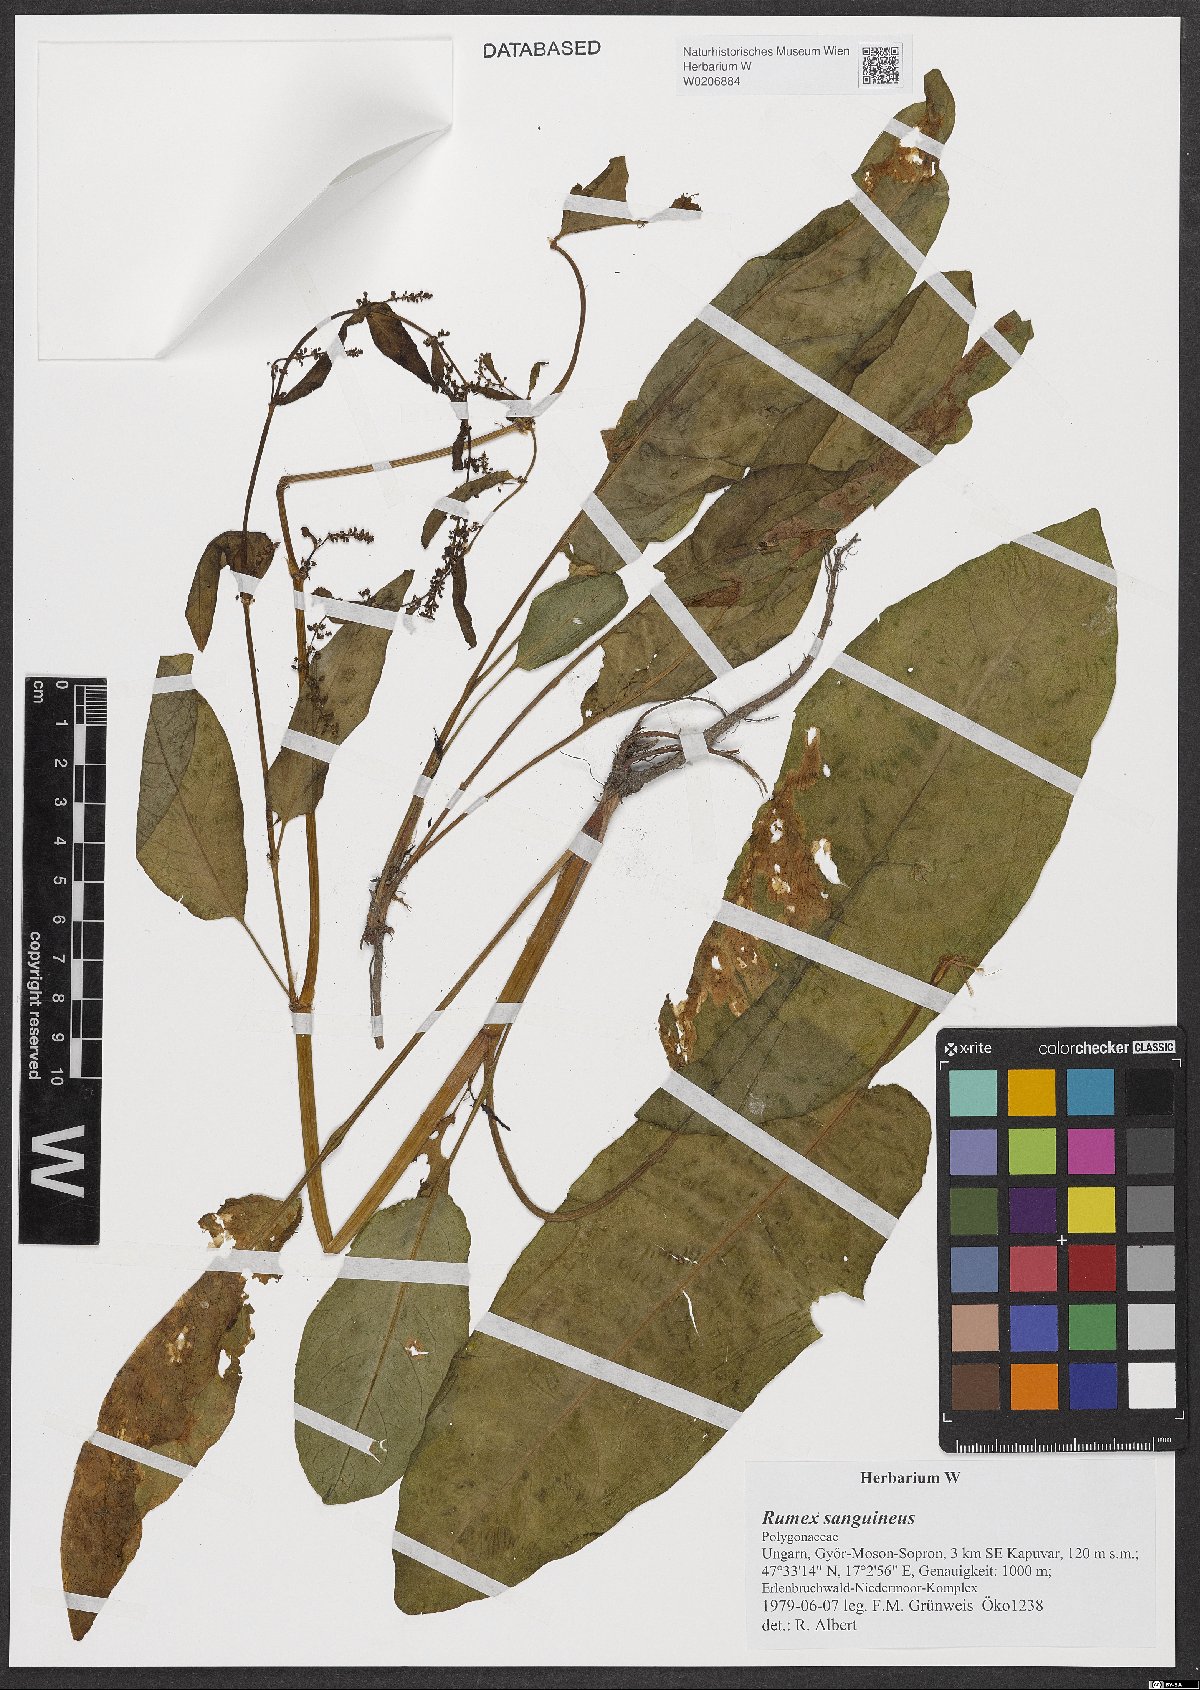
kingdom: Plantae
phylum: Tracheophyta
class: Magnoliopsida
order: Caryophyllales
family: Polygonaceae
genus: Rumex
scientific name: Rumex sanguineus
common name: Wood dock
